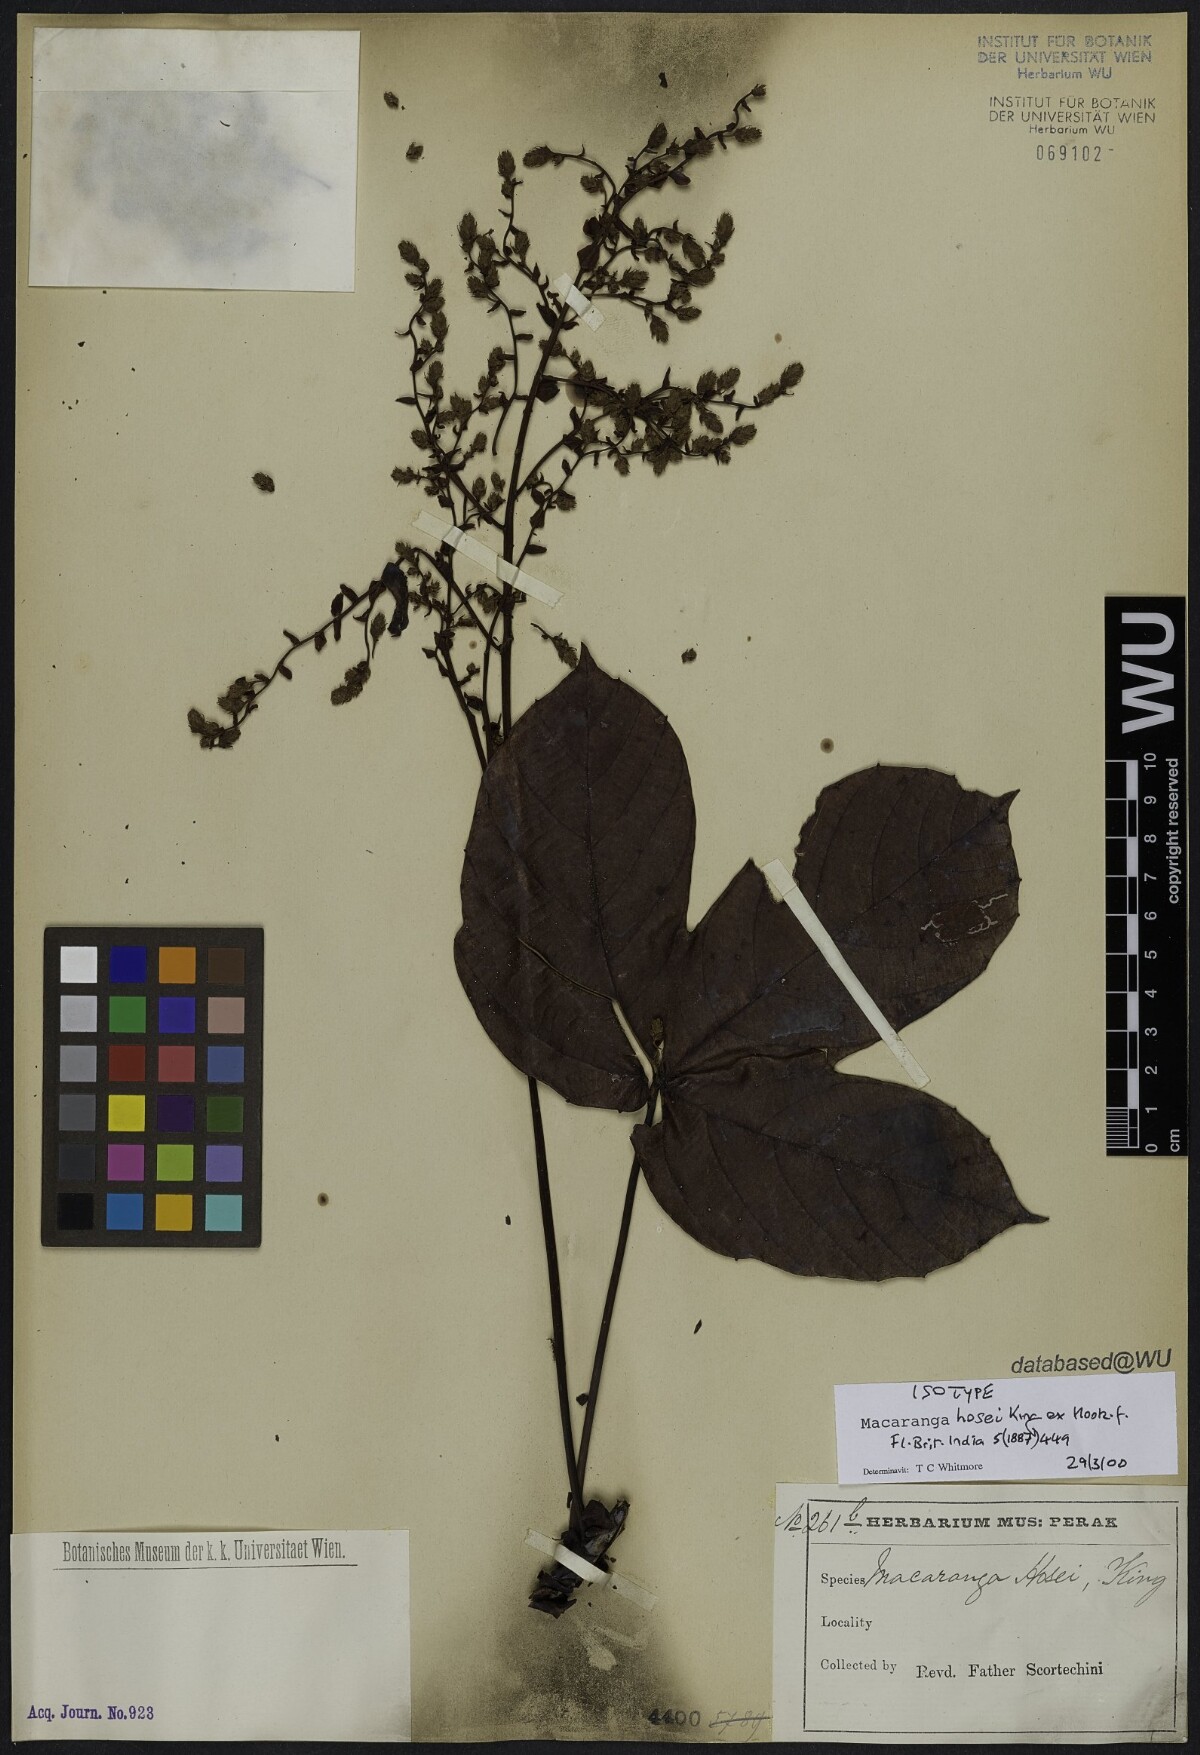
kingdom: Plantae
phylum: Tracheophyta
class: Magnoliopsida
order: Malpighiales
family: Euphorbiaceae
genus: Macaranga
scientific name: Macaranga hosei
